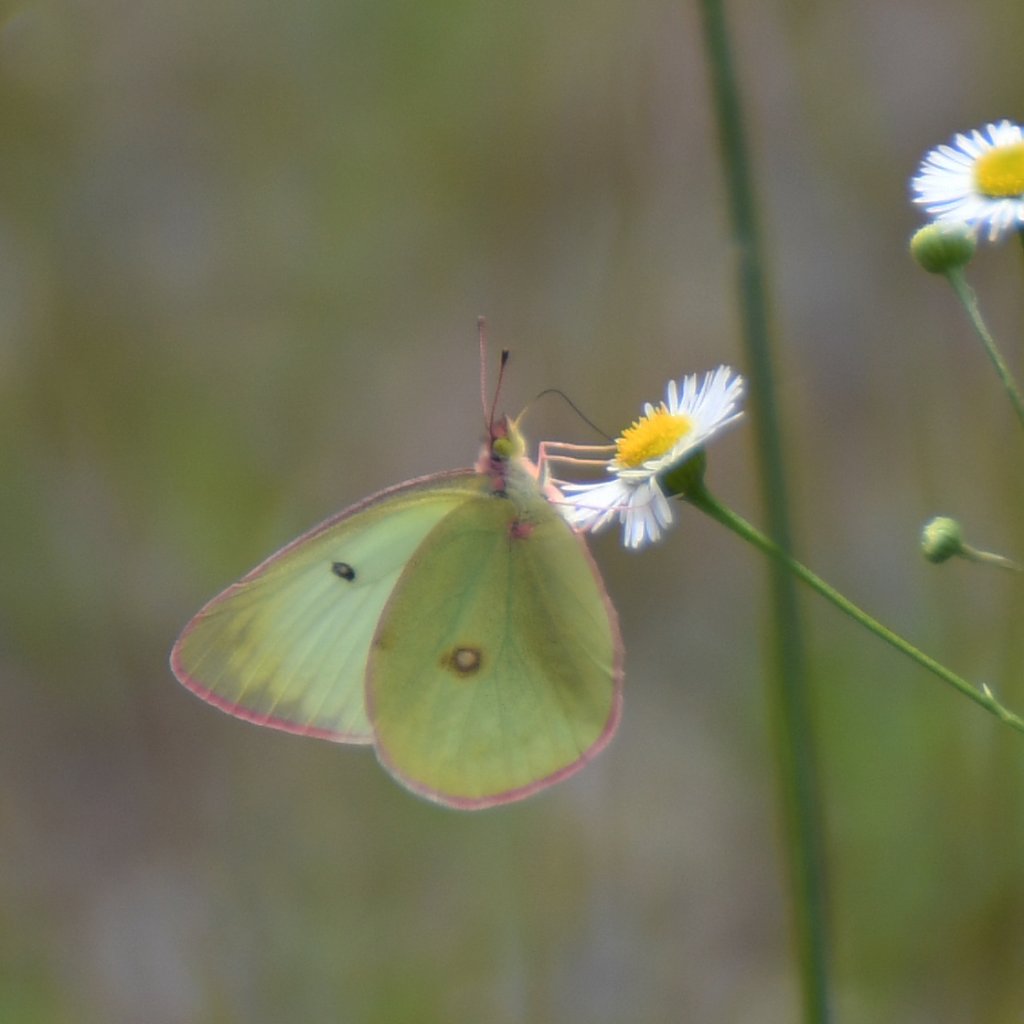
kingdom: Animalia
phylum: Arthropoda
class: Insecta
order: Lepidoptera
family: Pieridae
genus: Colias
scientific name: Colias interior
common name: Pink-edged Sulphur
